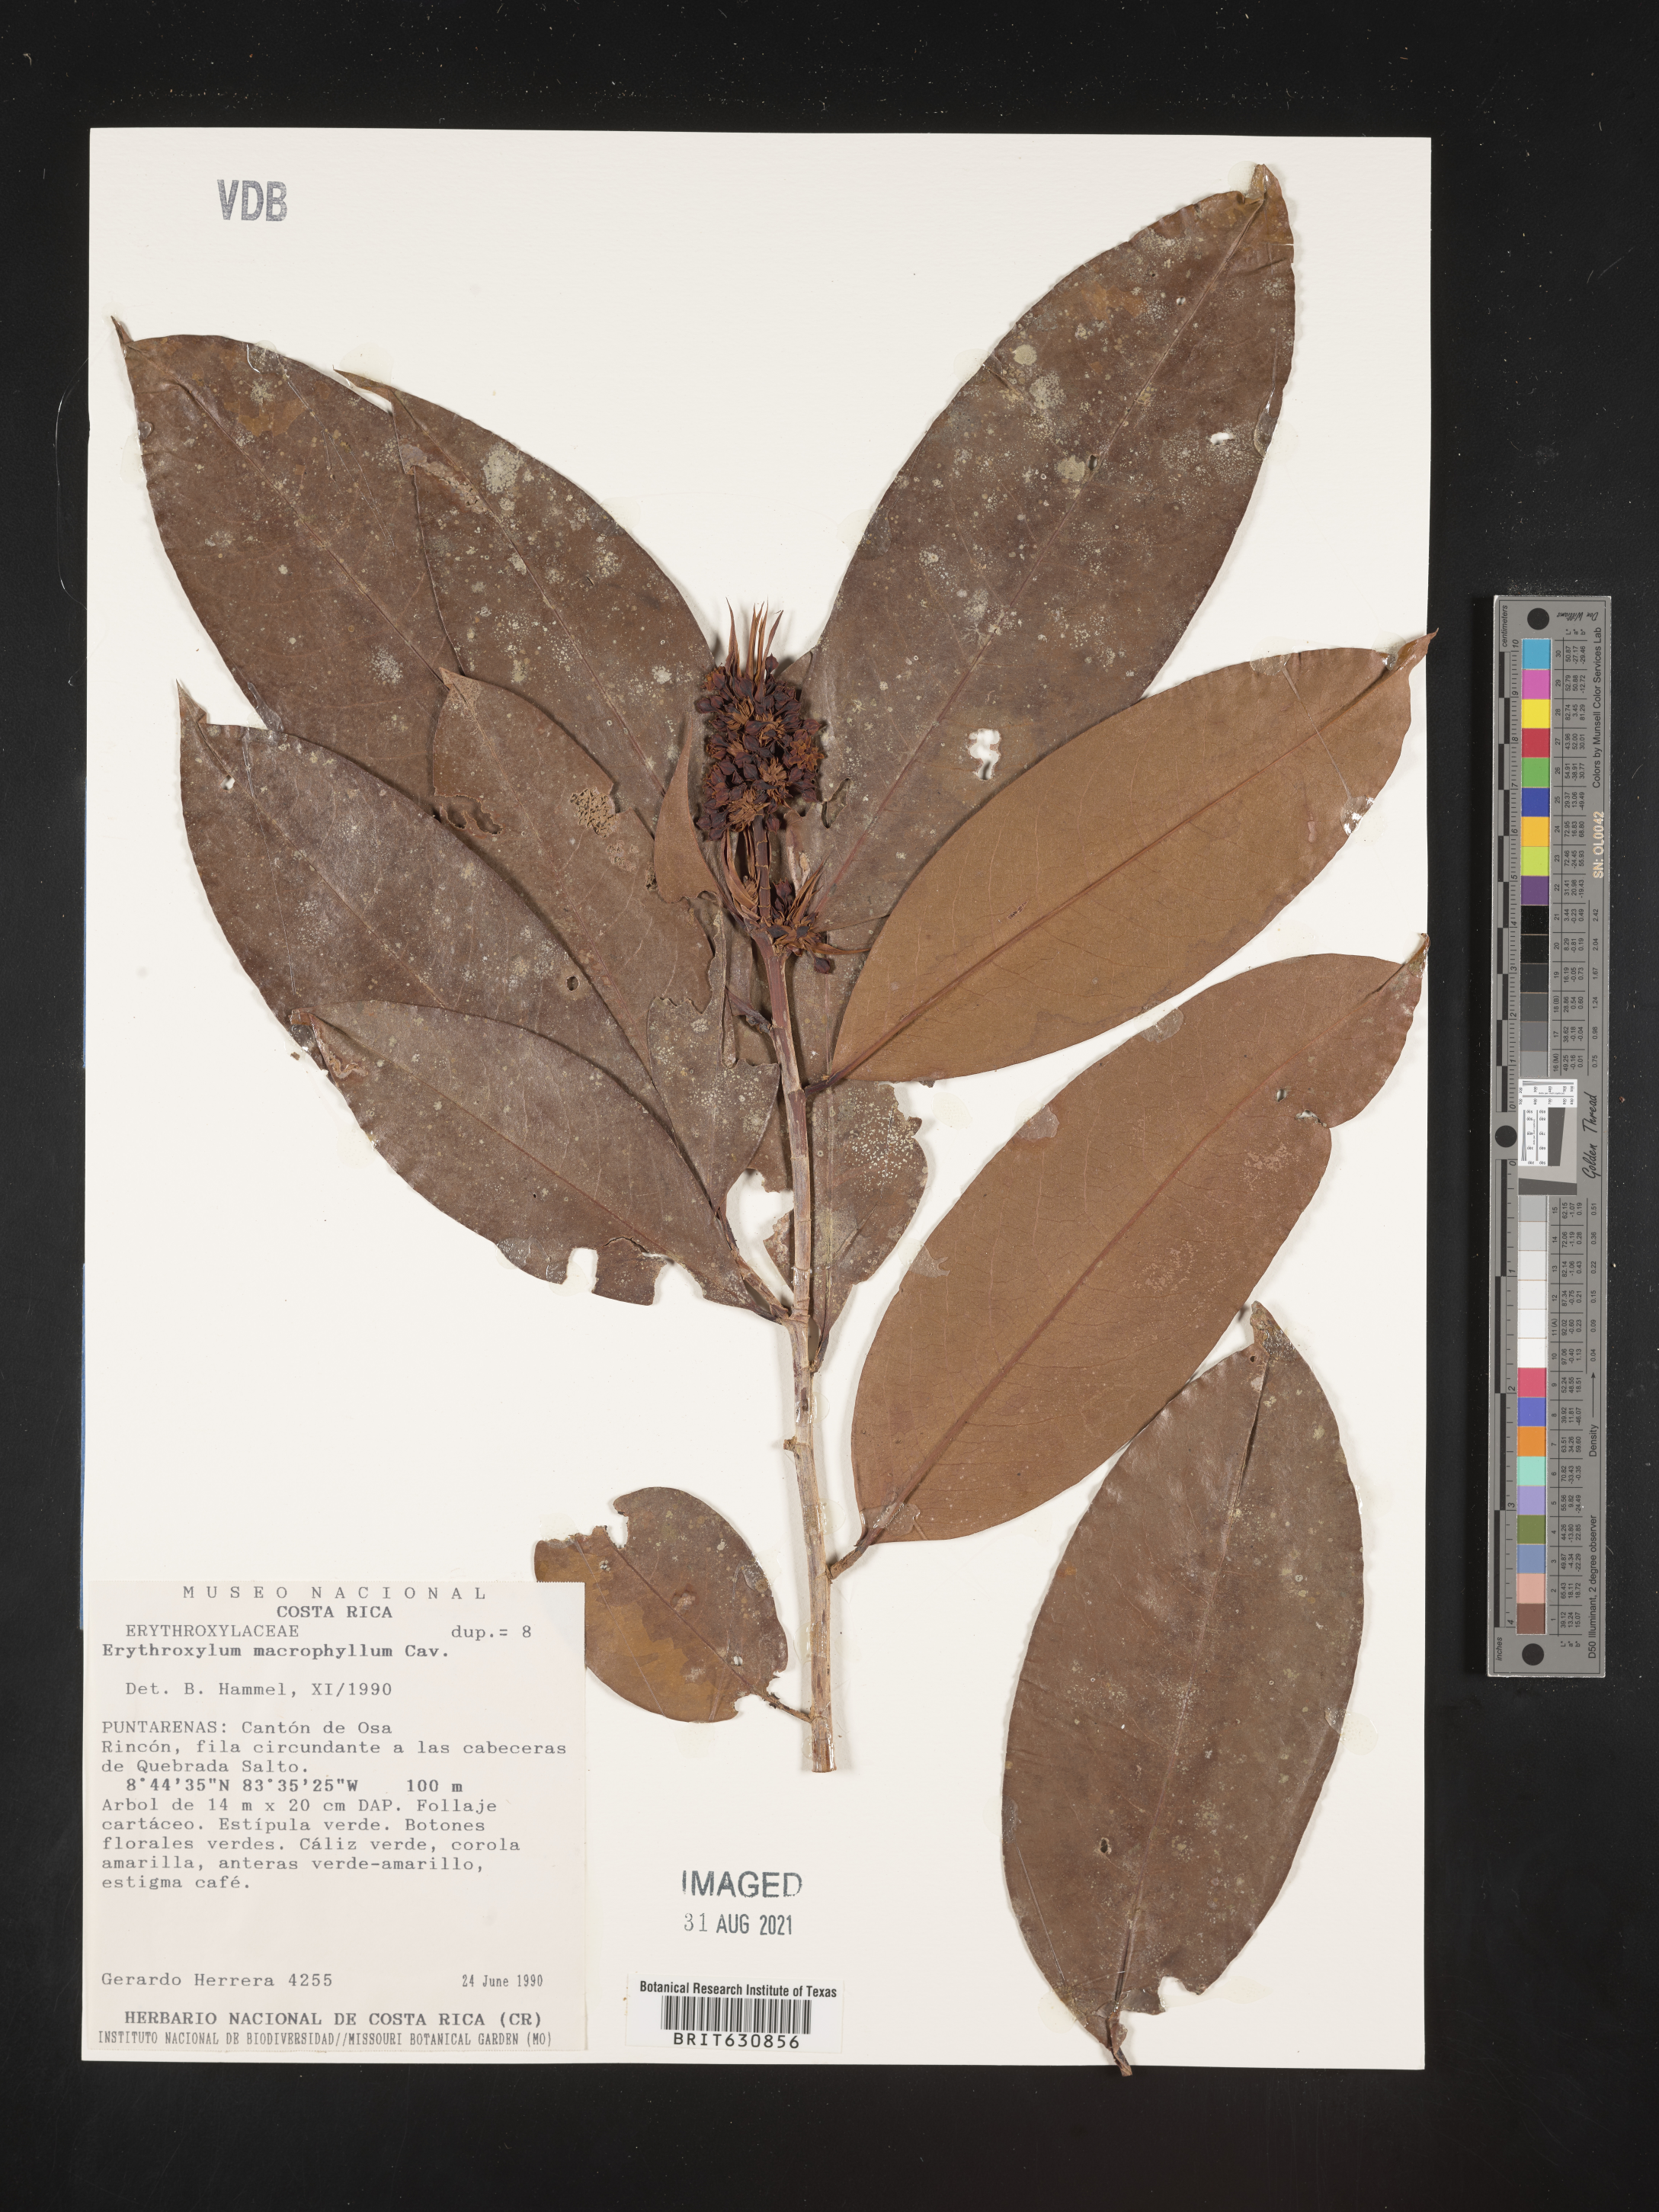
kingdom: Plantae
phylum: Tracheophyta
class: Magnoliopsida
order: Malpighiales
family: Erythroxylaceae
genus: Erythroxylum
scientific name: Erythroxylum
